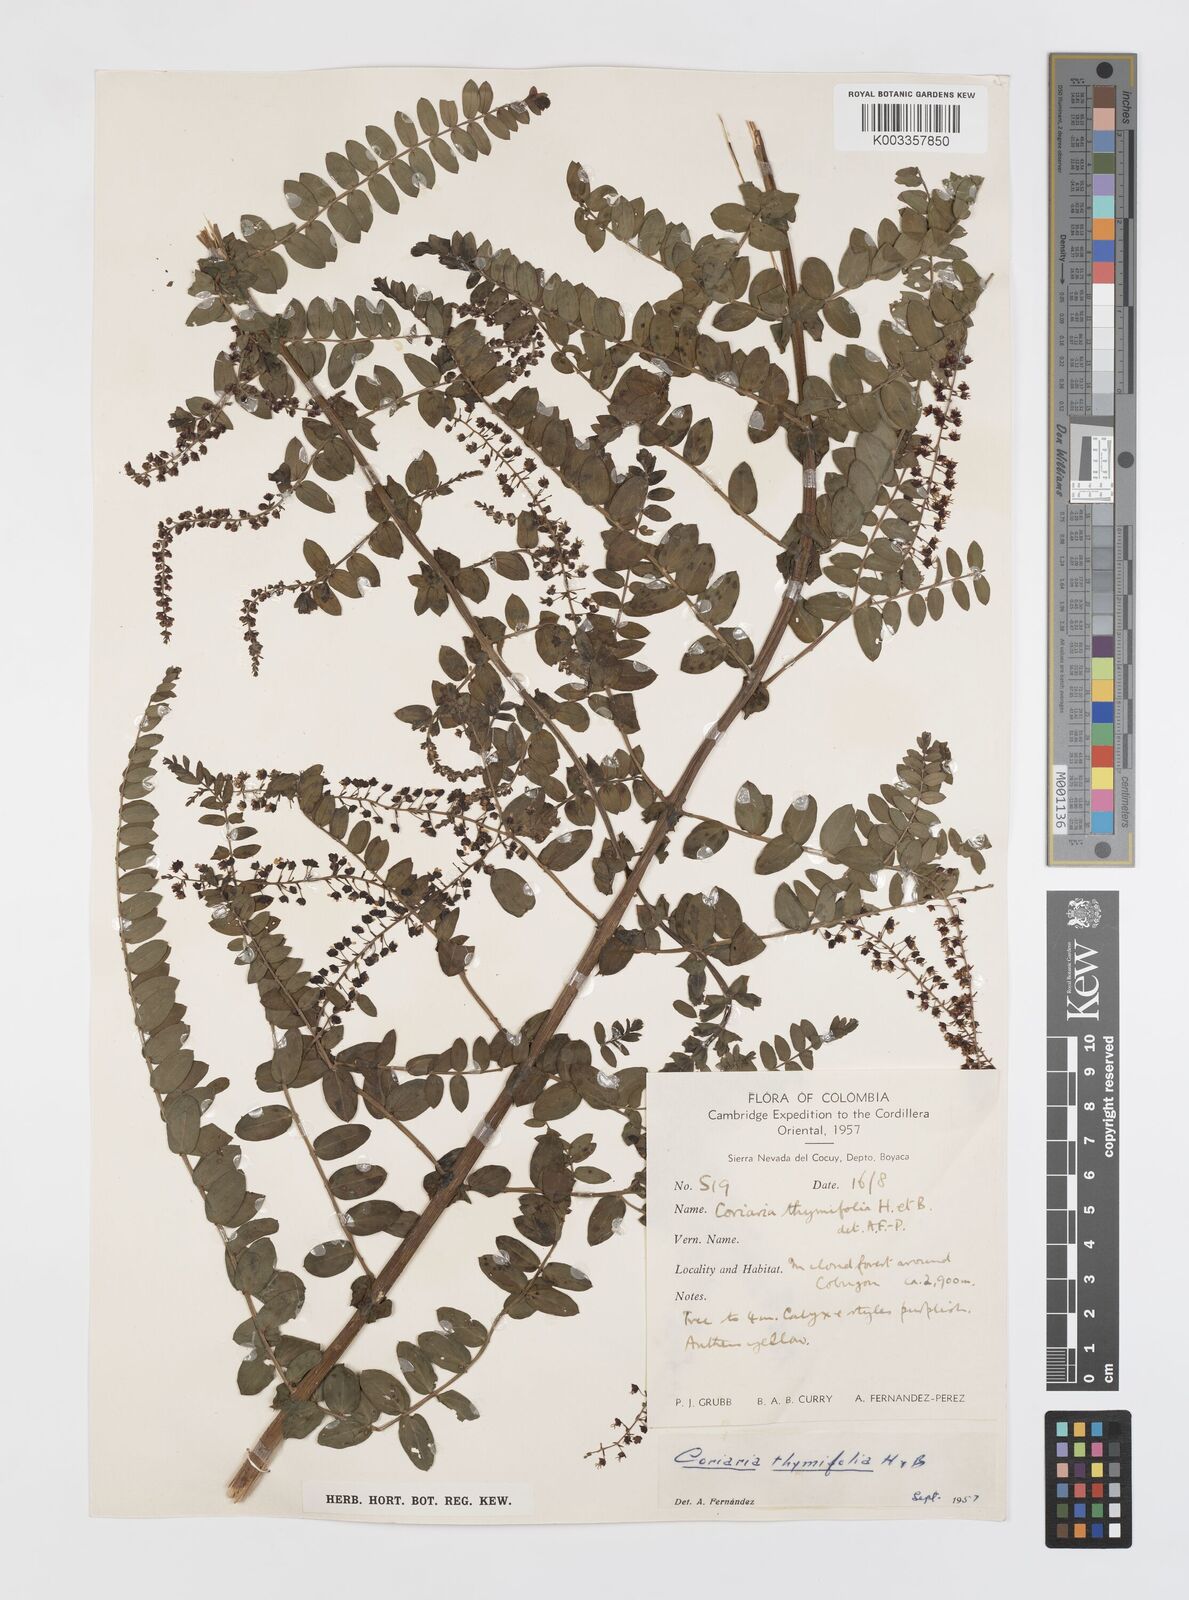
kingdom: Plantae
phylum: Tracheophyta
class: Magnoliopsida
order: Cucurbitales
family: Coriariaceae
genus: Coriaria
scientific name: Coriaria microphylla
